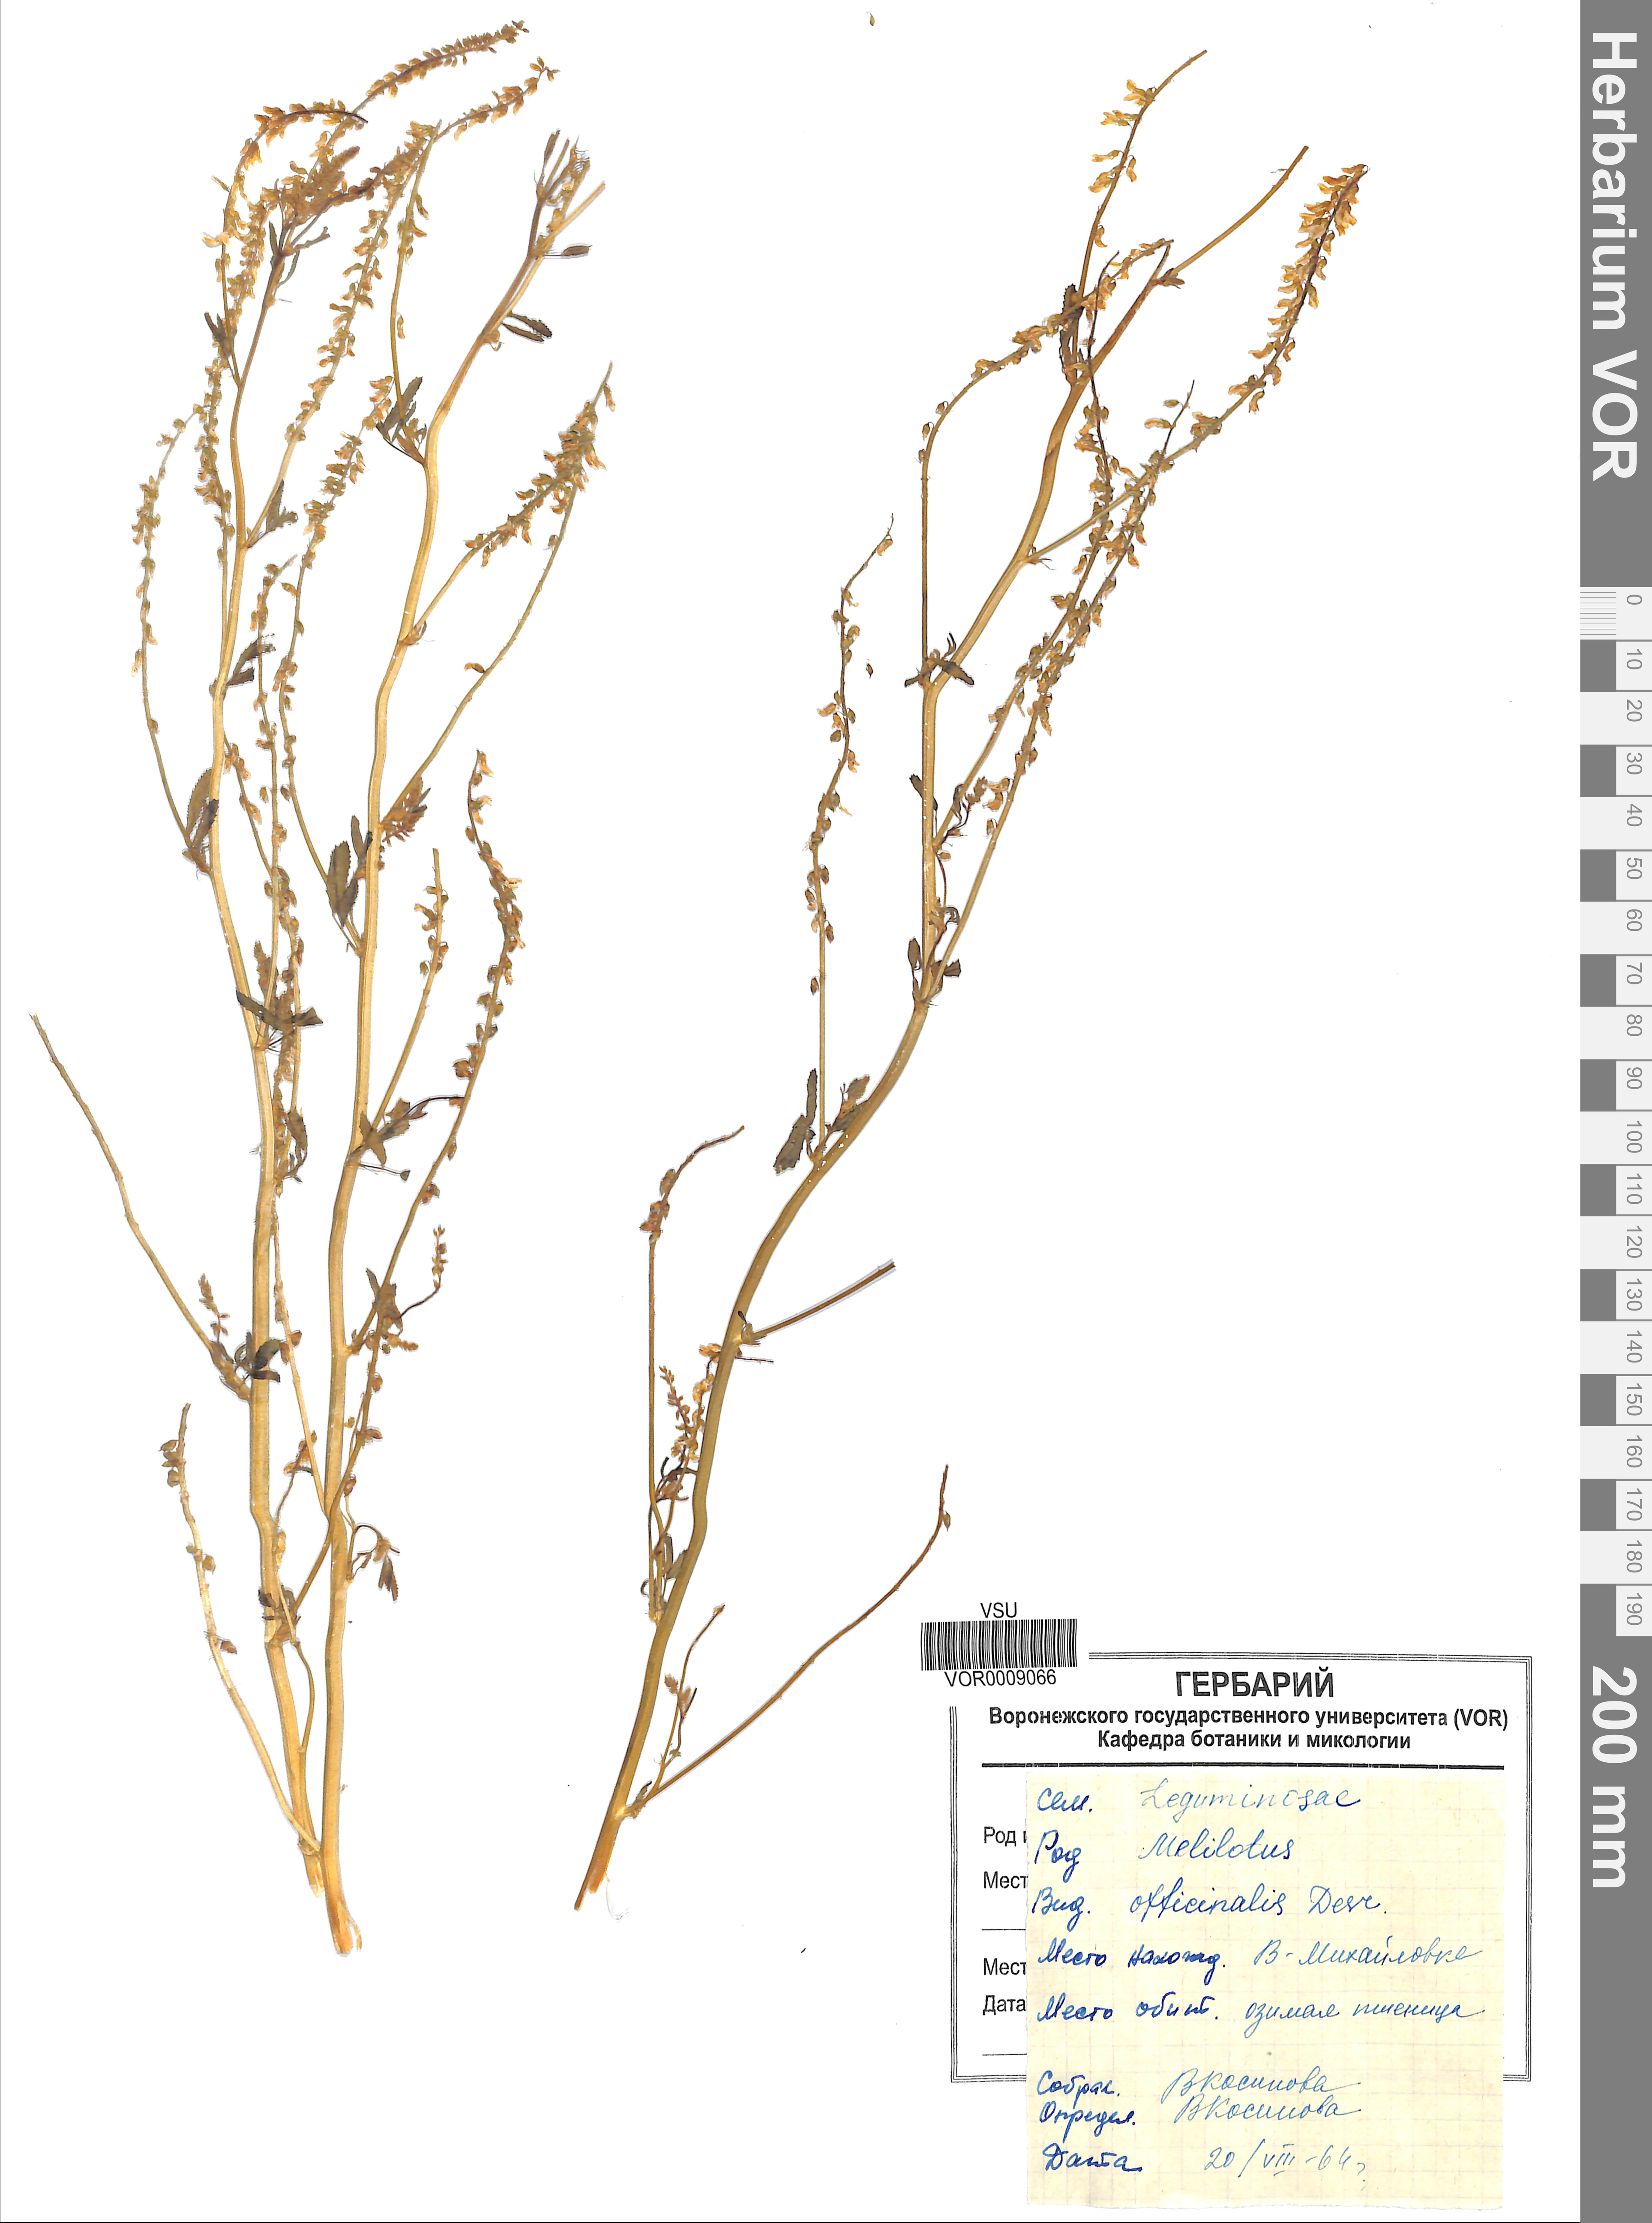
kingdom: Plantae
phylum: Tracheophyta
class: Magnoliopsida
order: Fabales
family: Fabaceae
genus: Melilotus
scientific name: Melilotus officinalis
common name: Sweetclover
